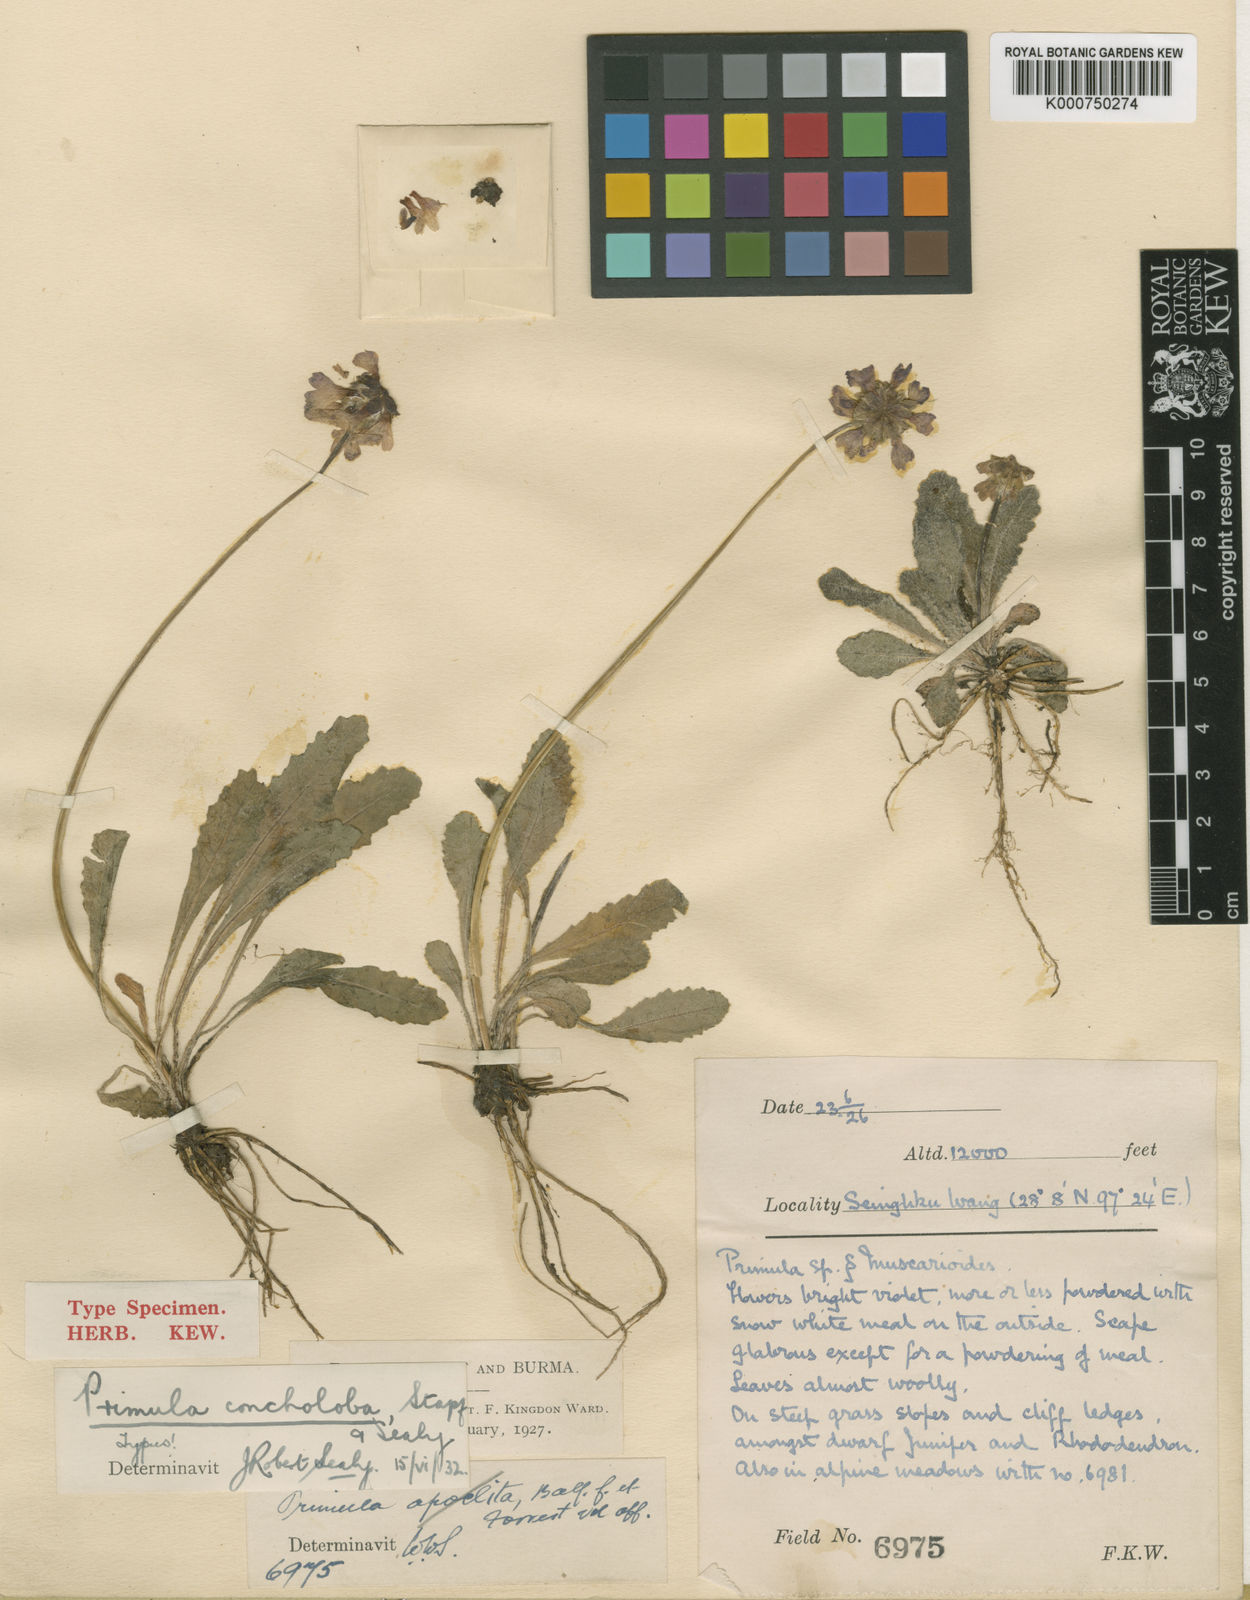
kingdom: Plantae
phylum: Tracheophyta
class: Magnoliopsida
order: Ericales
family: Primulaceae
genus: Primula
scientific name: Primula concholoba
